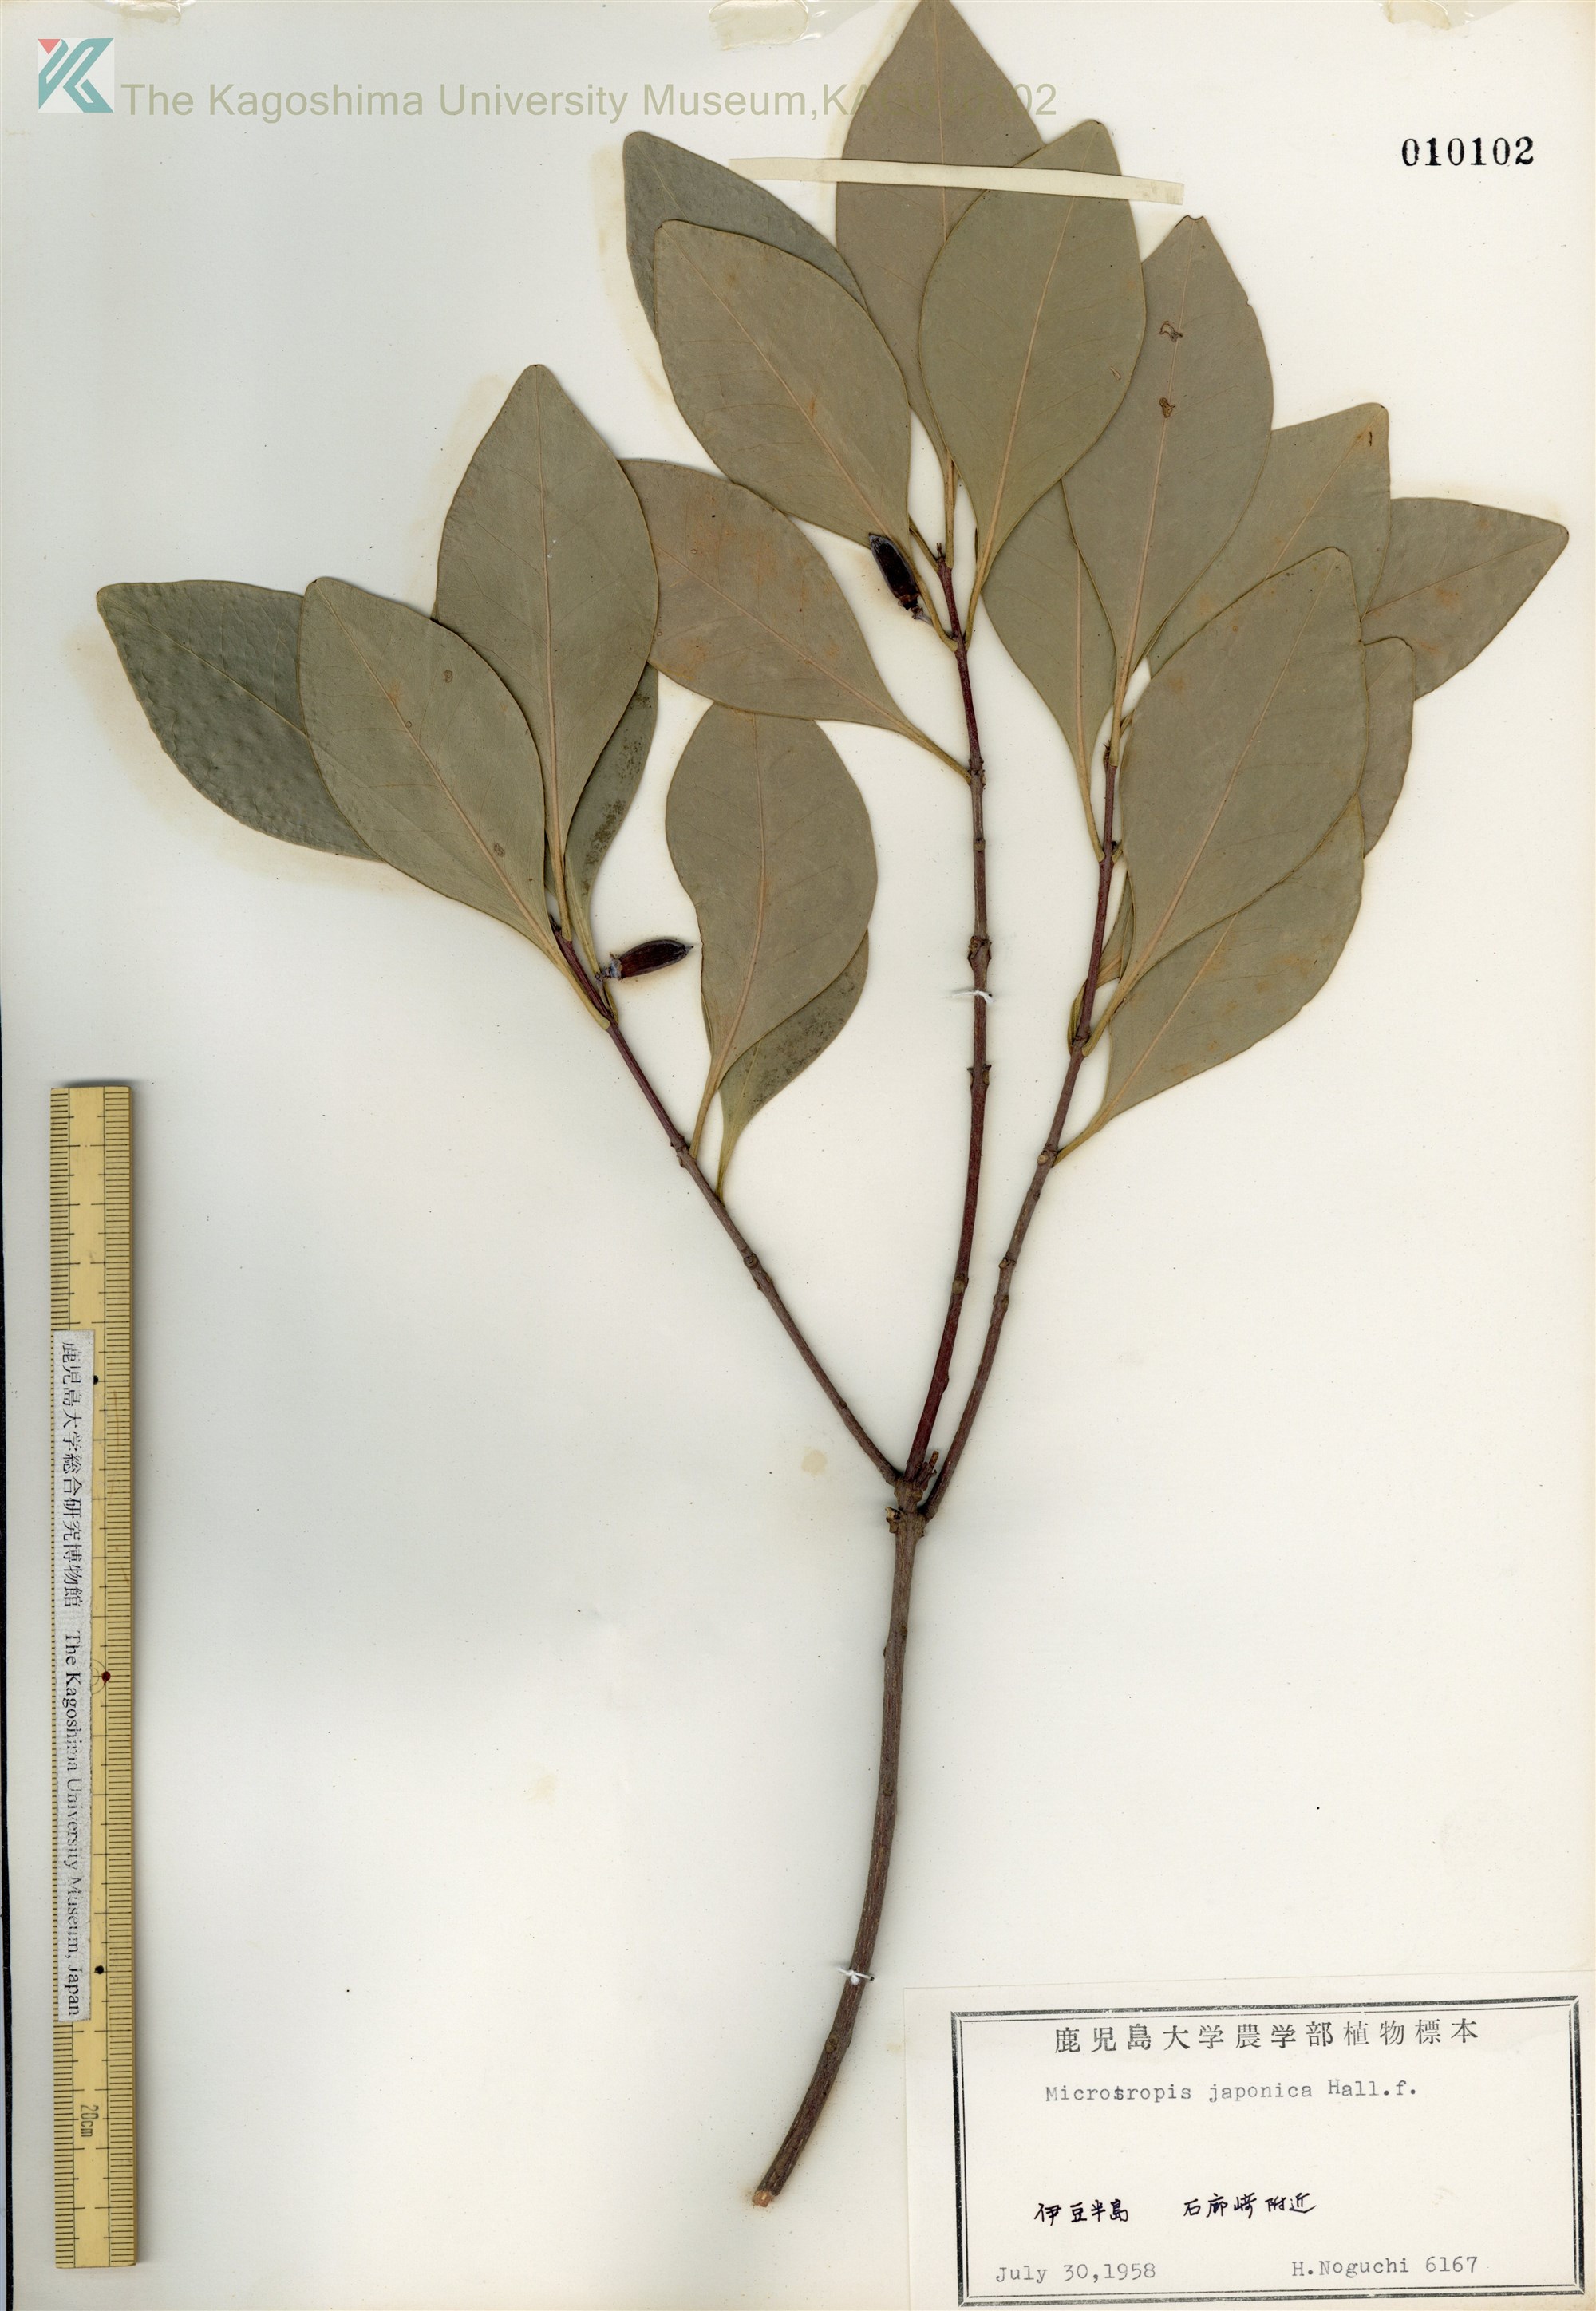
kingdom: Plantae
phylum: Tracheophyta
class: Magnoliopsida
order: Celastrales
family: Celastraceae
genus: Microtropis
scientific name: Microtropis japonica
